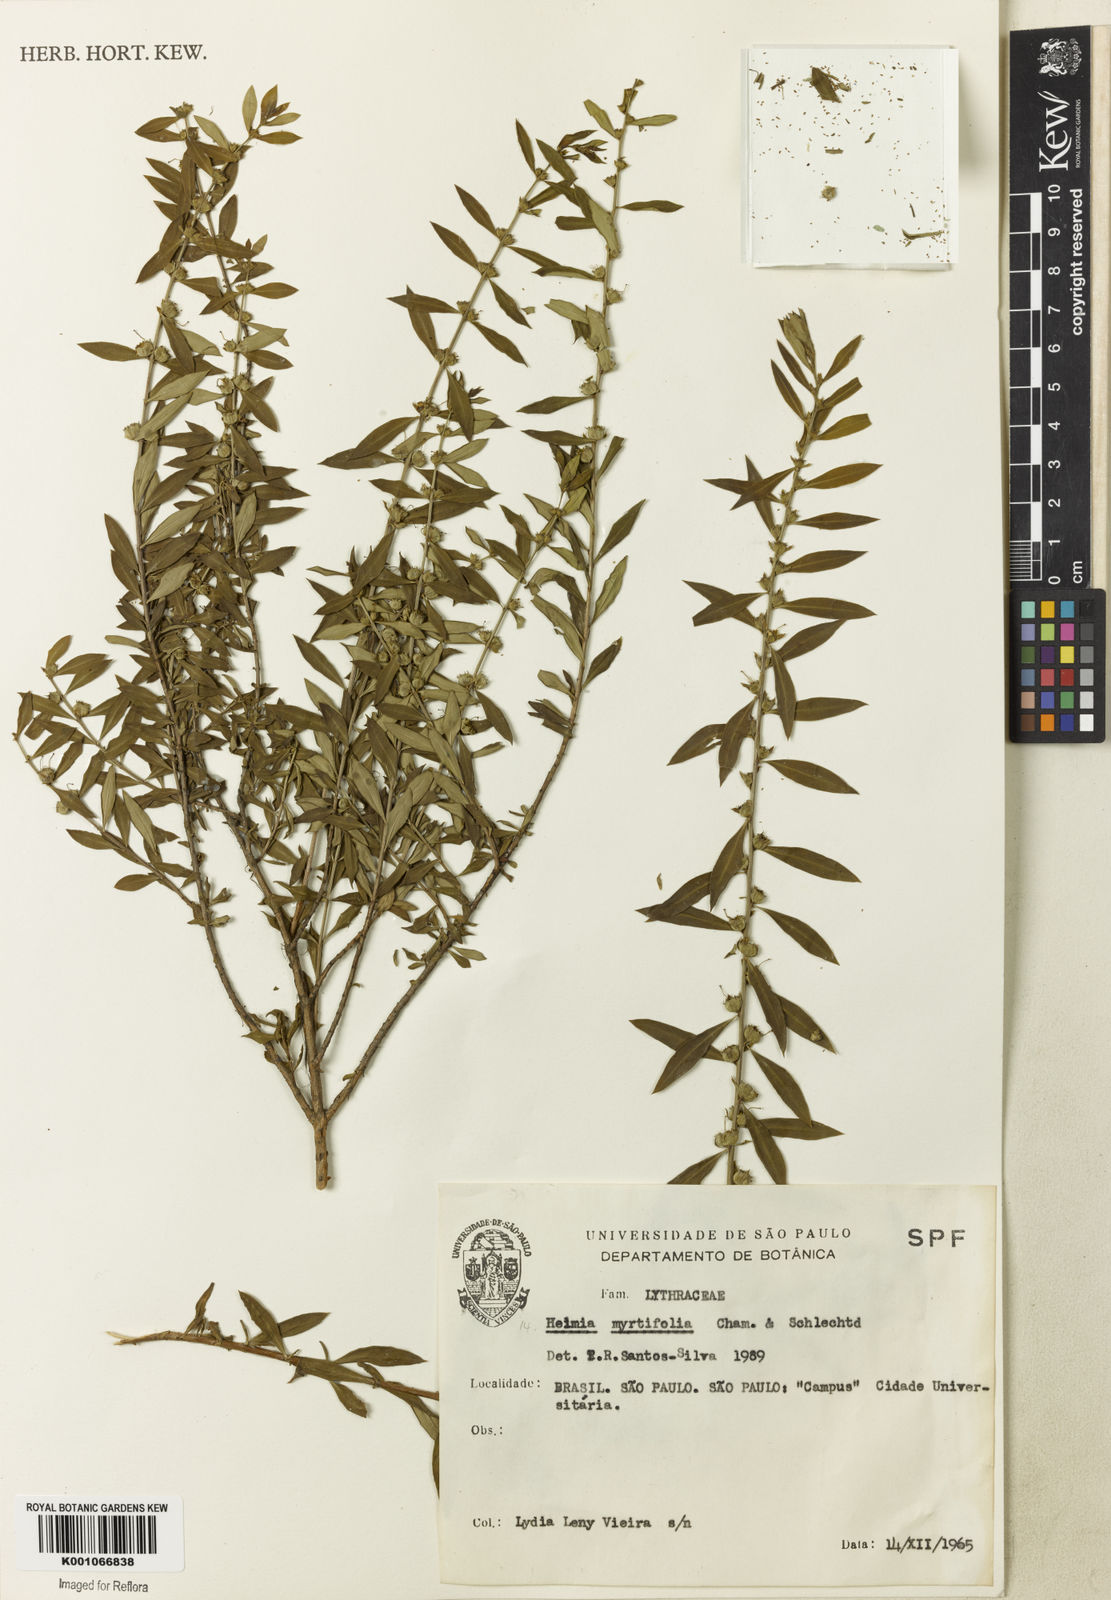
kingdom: Plantae
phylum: Tracheophyta
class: Magnoliopsida
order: Myrtales
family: Lythraceae
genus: Heimia
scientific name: Heimia apetala
